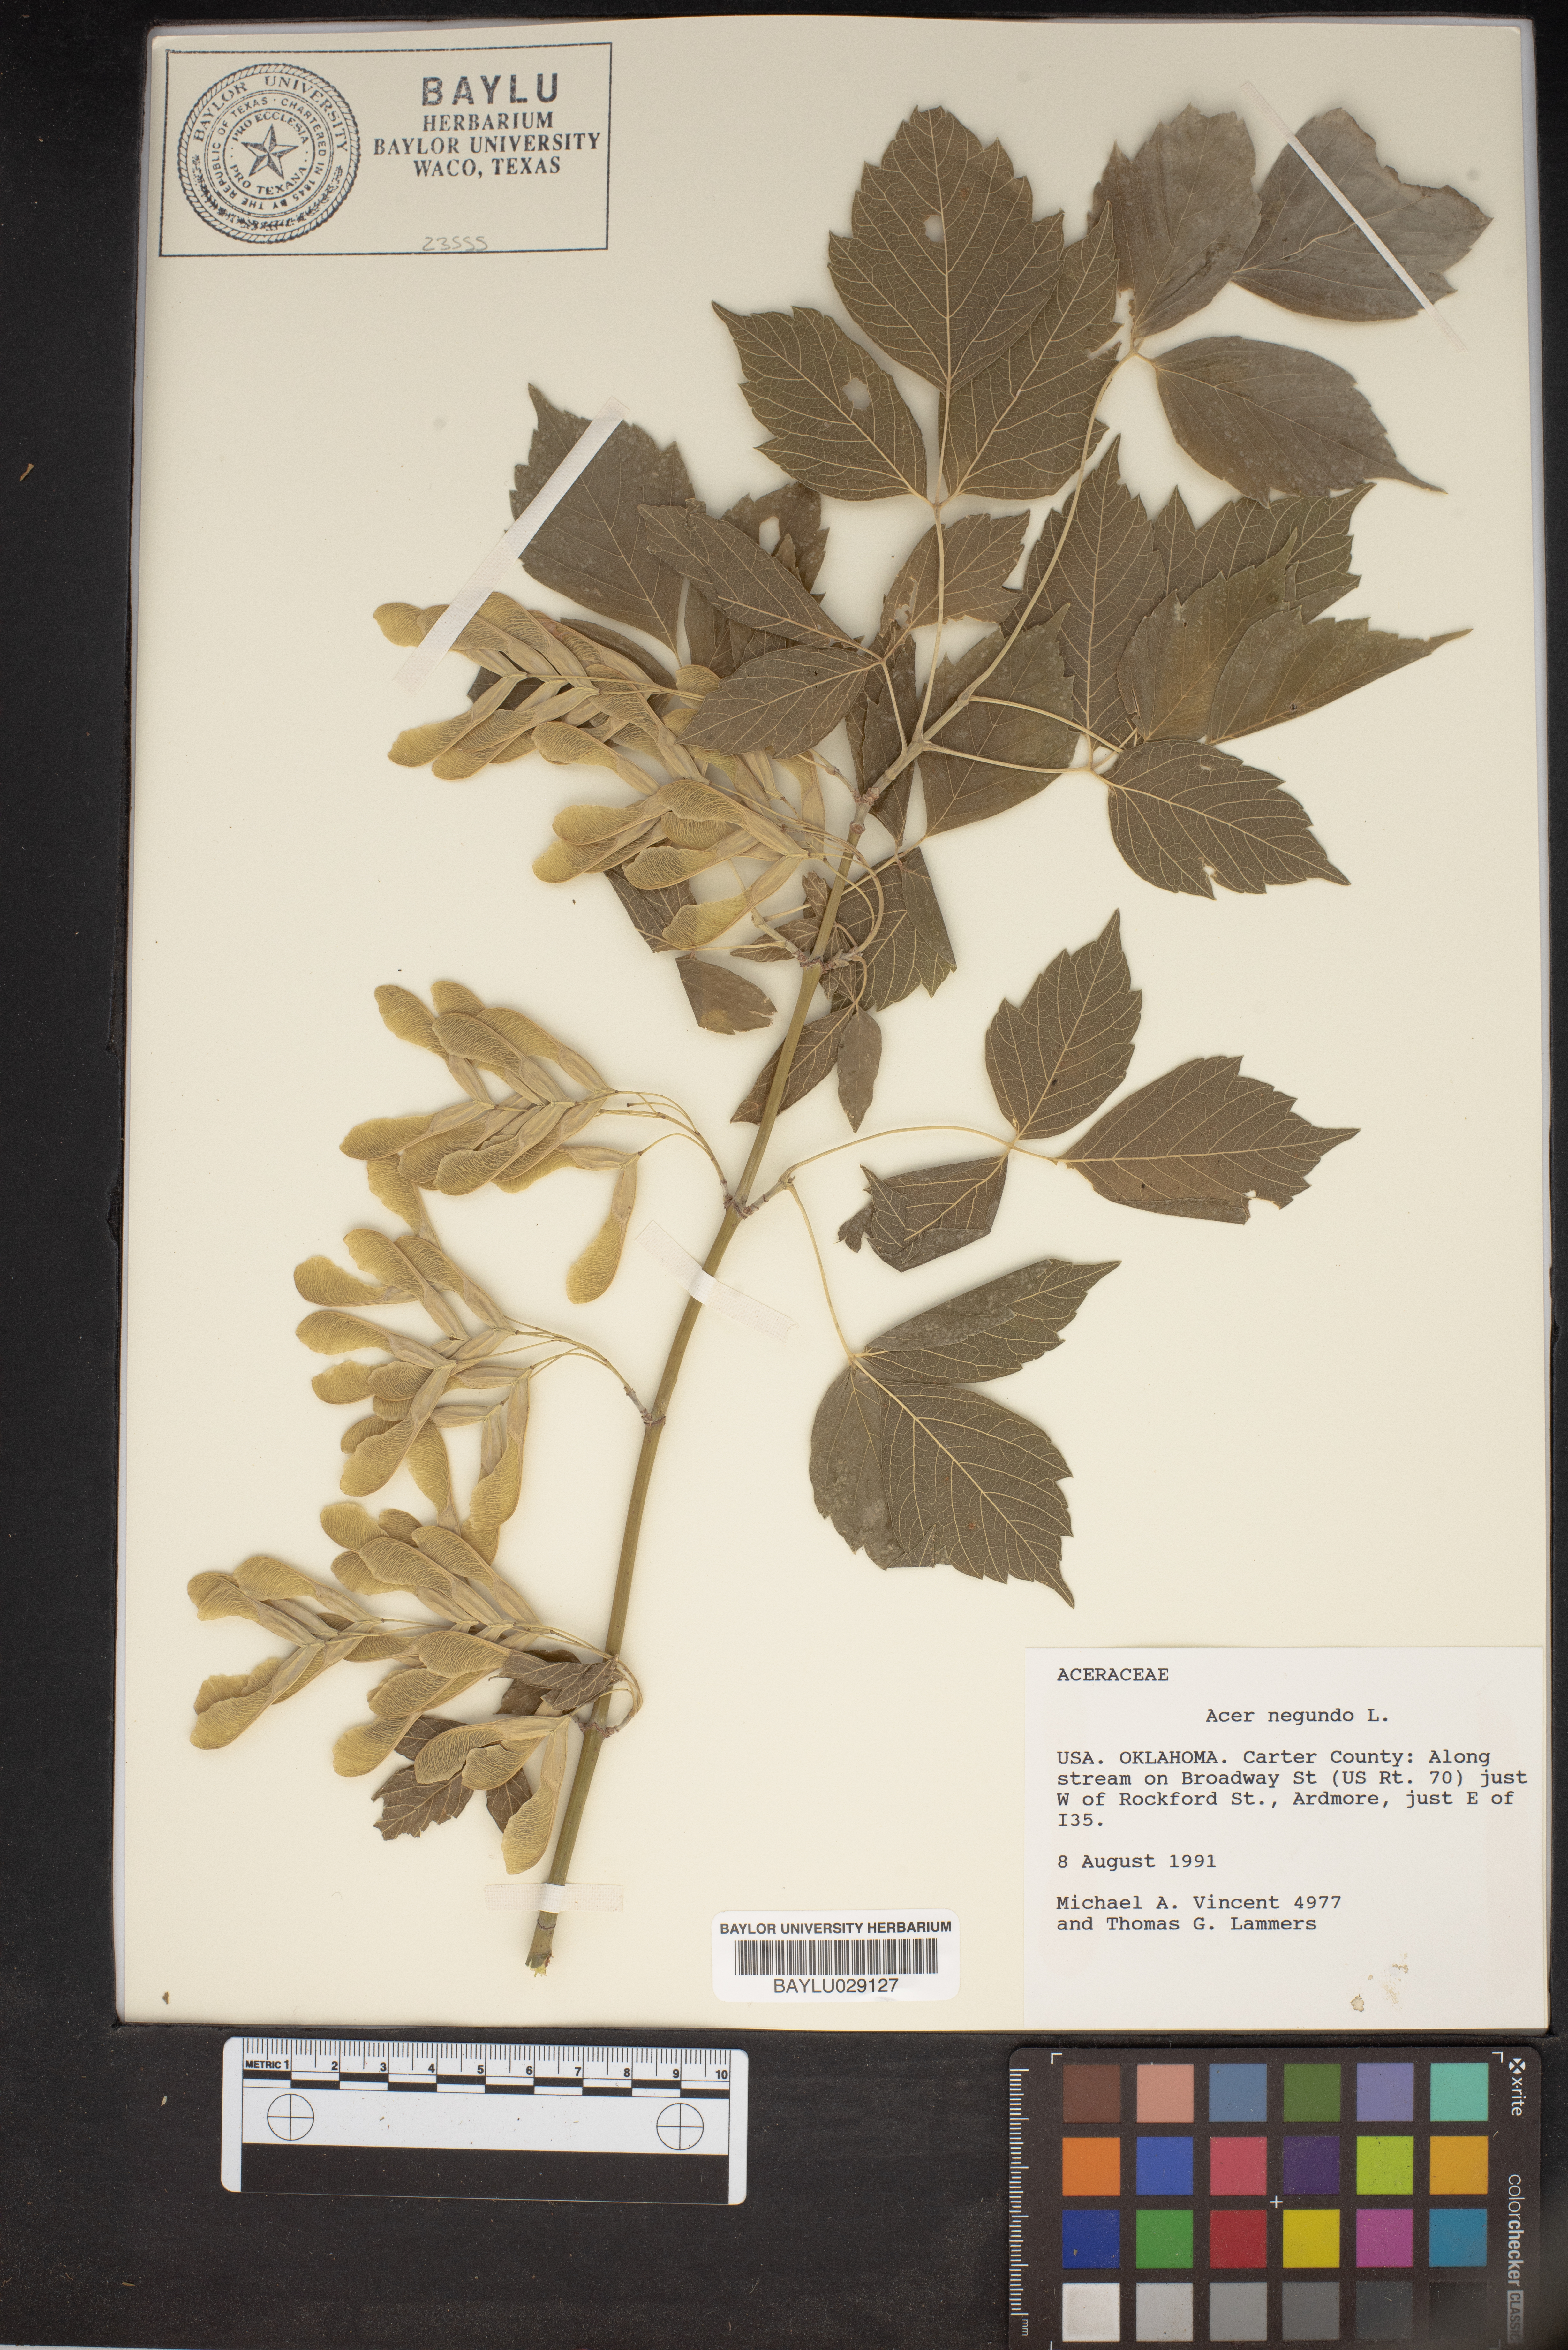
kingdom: Plantae
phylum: Tracheophyta
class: Magnoliopsida
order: Sapindales
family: Sapindaceae
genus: Acer
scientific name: Acer negundo
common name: Ashleaf maple
